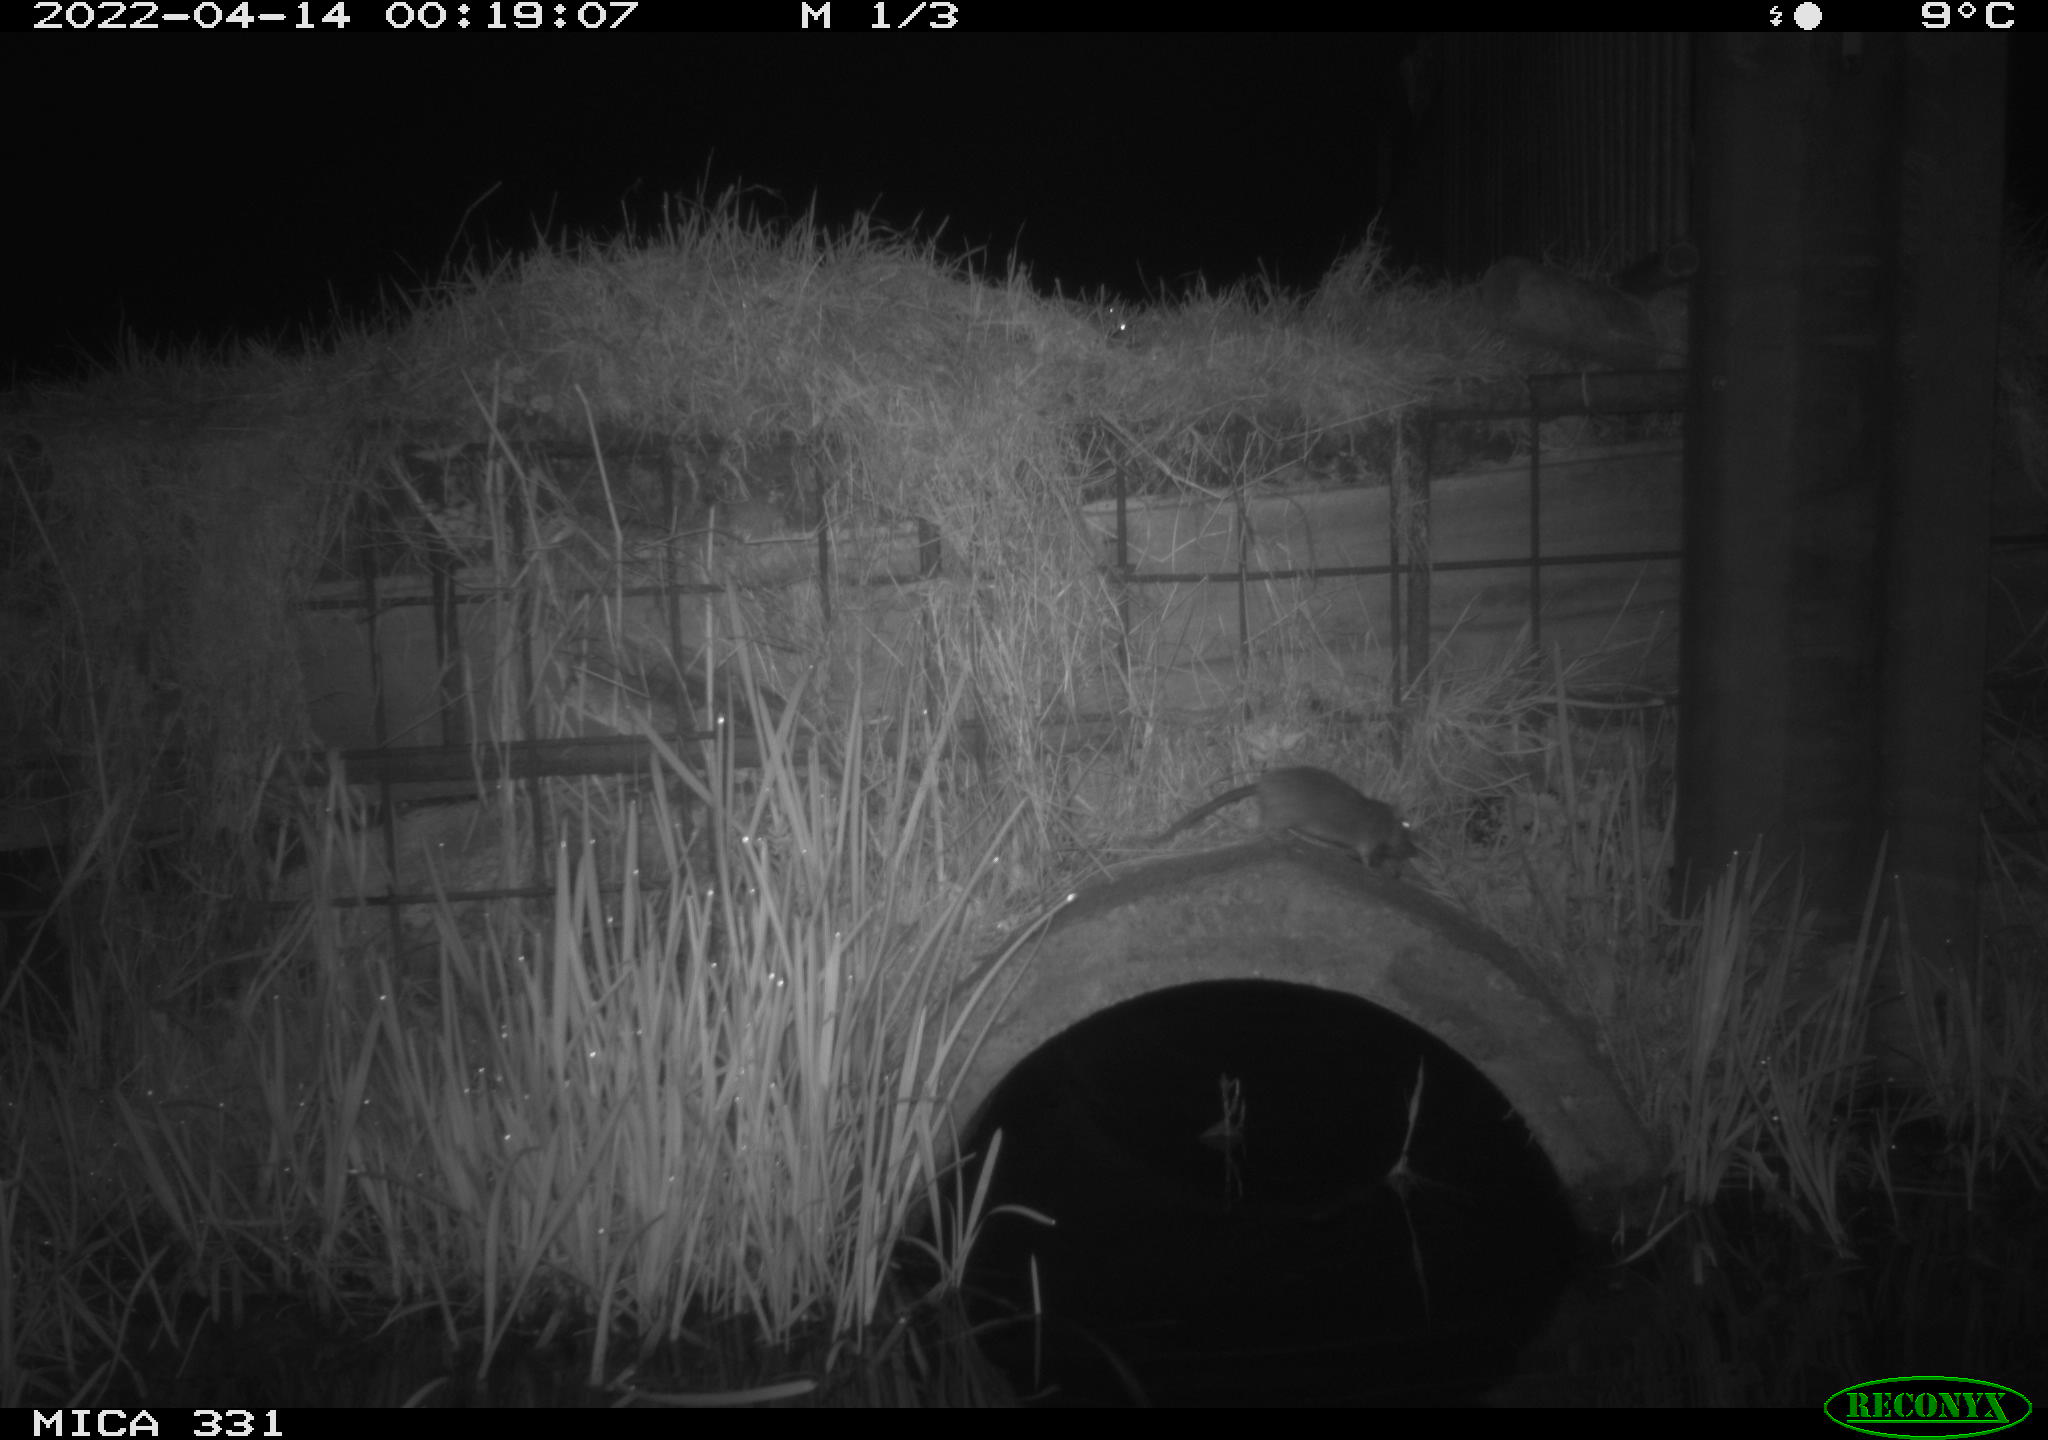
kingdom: Animalia
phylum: Chordata
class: Mammalia
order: Rodentia
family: Muridae
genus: Rattus
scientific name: Rattus norvegicus
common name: Brown rat
